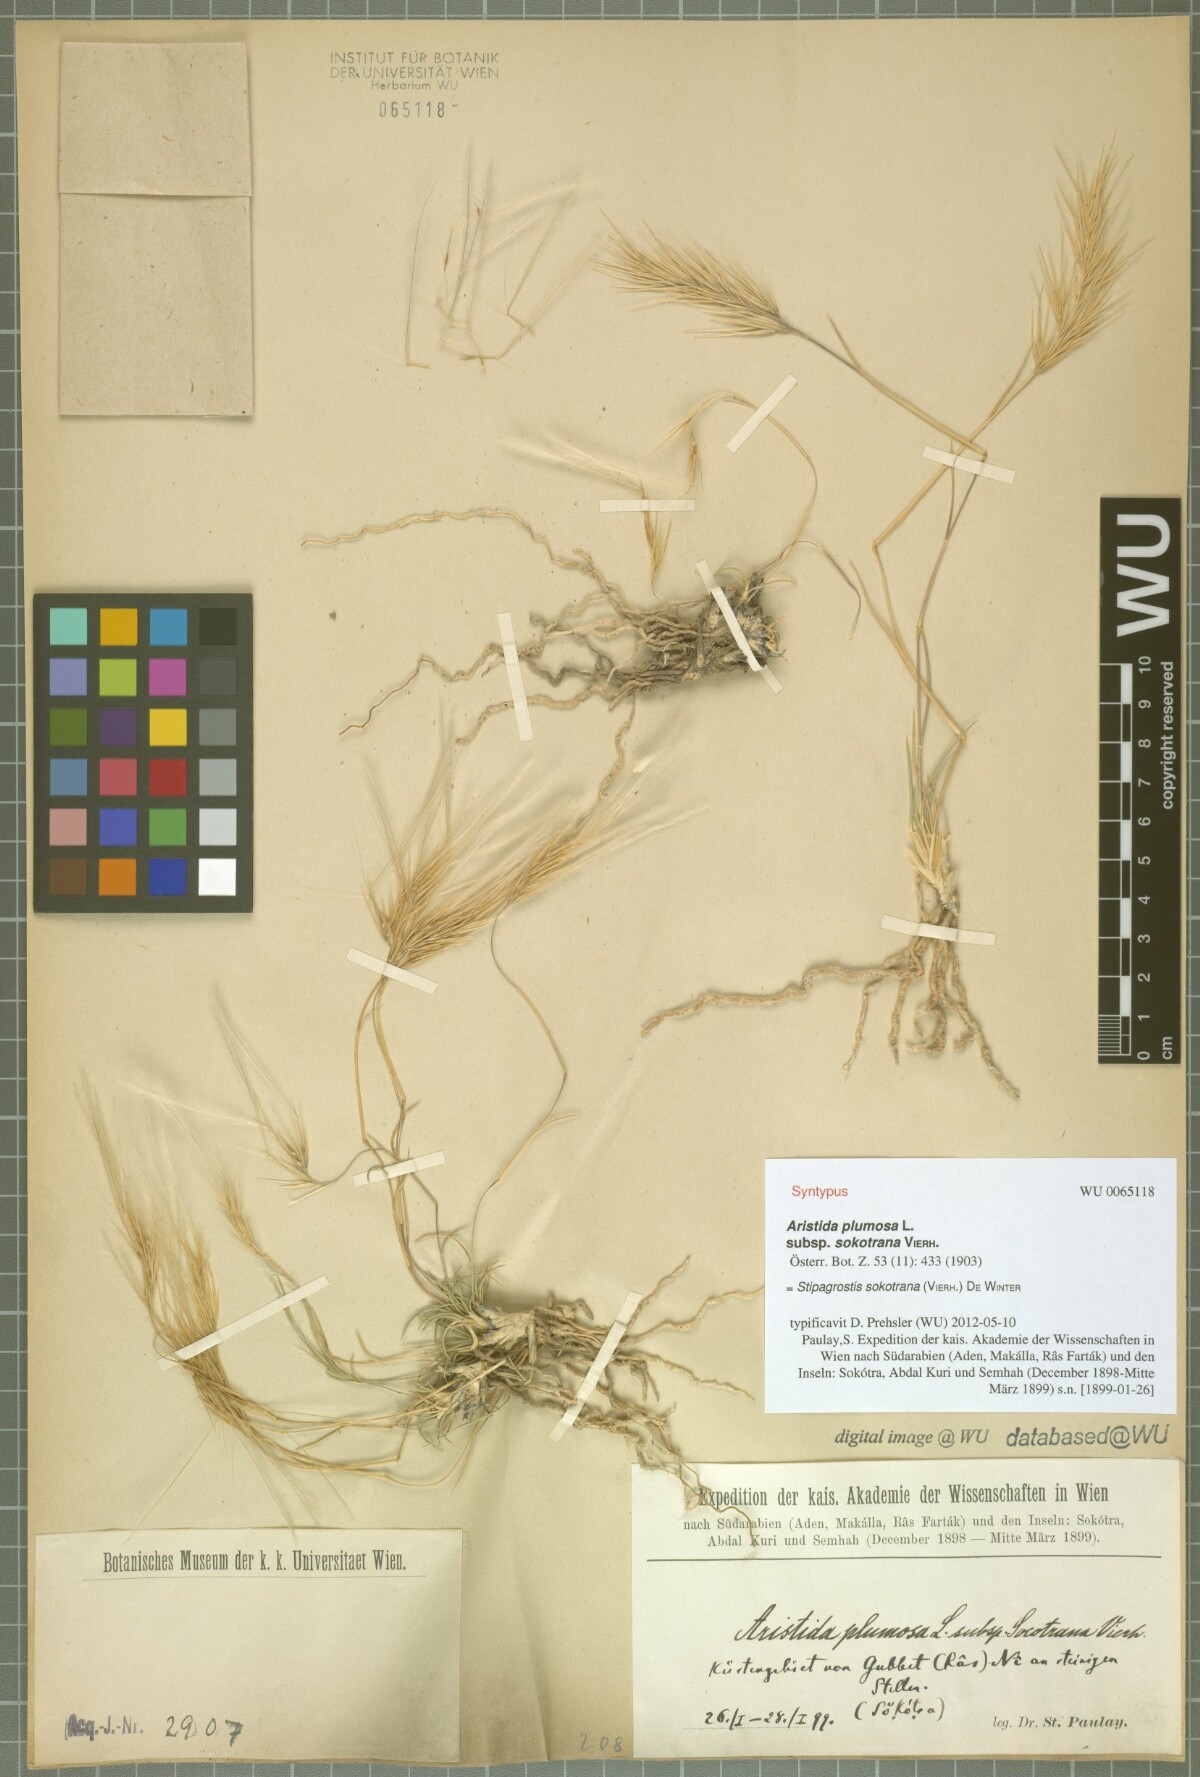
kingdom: Plantae
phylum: Tracheophyta
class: Liliopsida
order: Poales
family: Poaceae
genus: Stipagrostis
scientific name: Stipagrostis sokotrana
